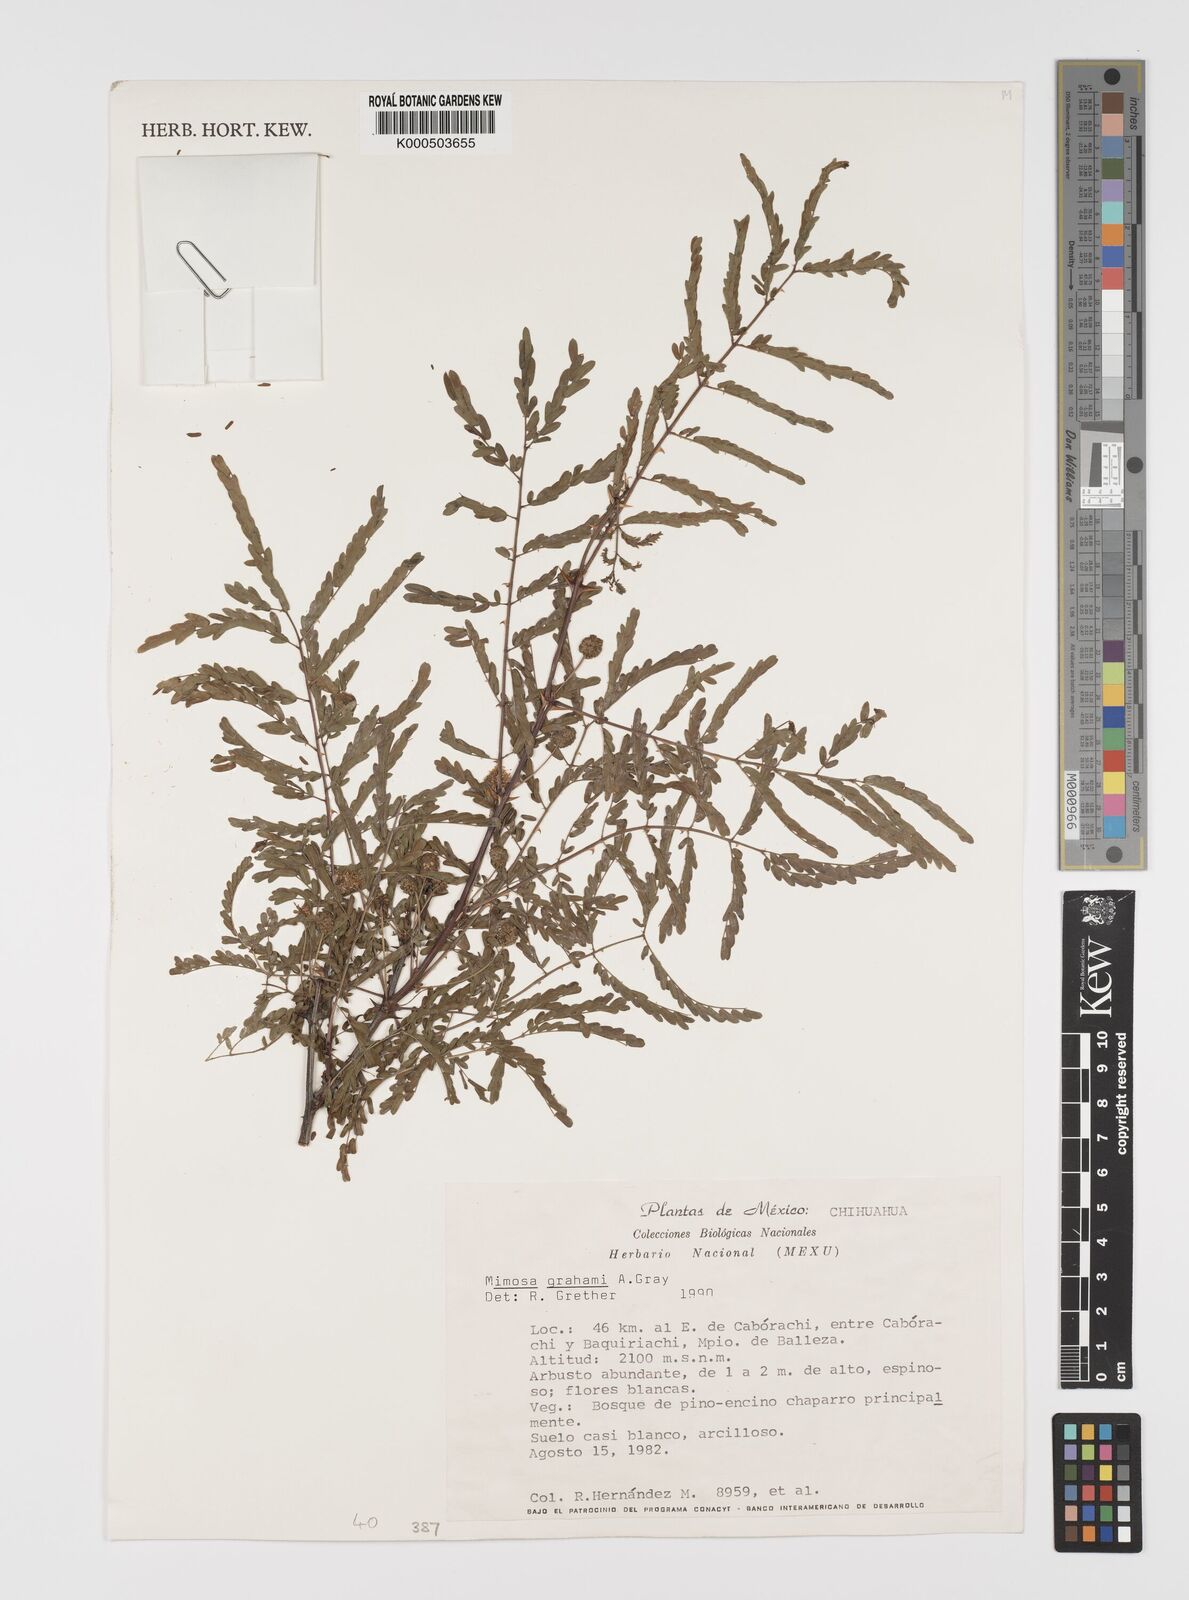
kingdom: Plantae
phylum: Tracheophyta
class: Magnoliopsida
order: Fabales
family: Fabaceae
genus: Mimosa
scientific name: Mimosa grahamii
